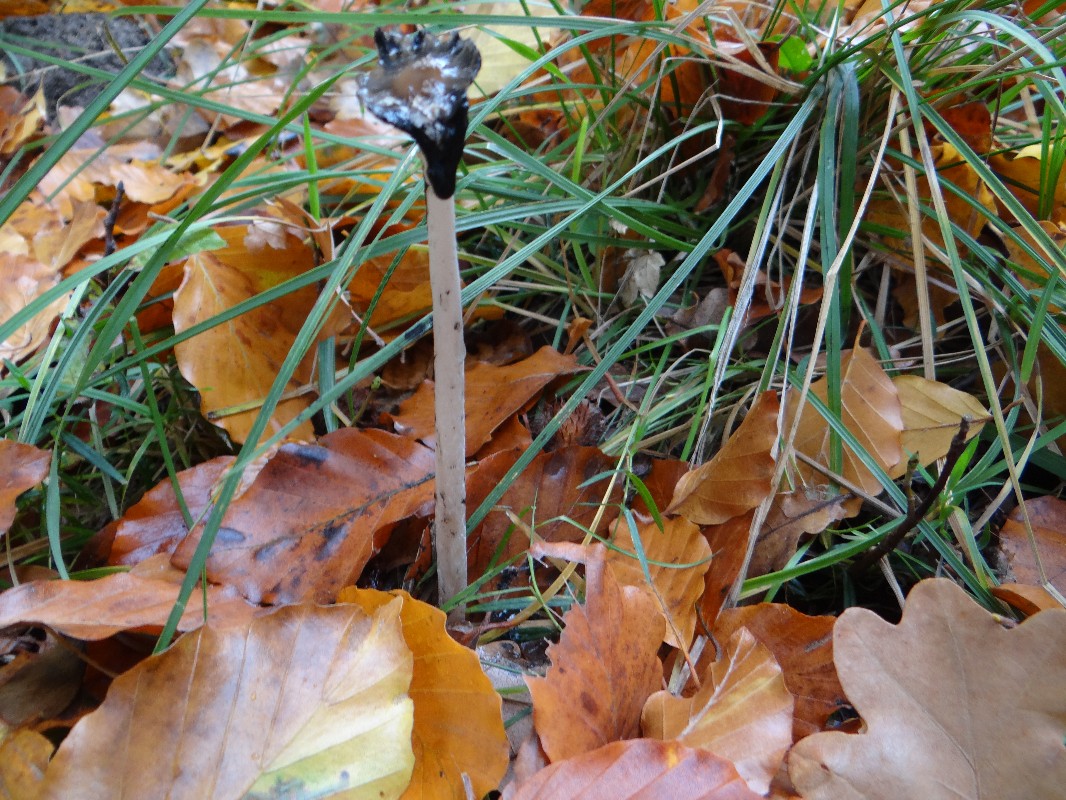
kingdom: Fungi
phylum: Basidiomycota
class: Agaricomycetes
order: Agaricales
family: Psathyrellaceae
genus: Coprinopsis
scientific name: Coprinopsis picacea
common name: skade-blækhat
